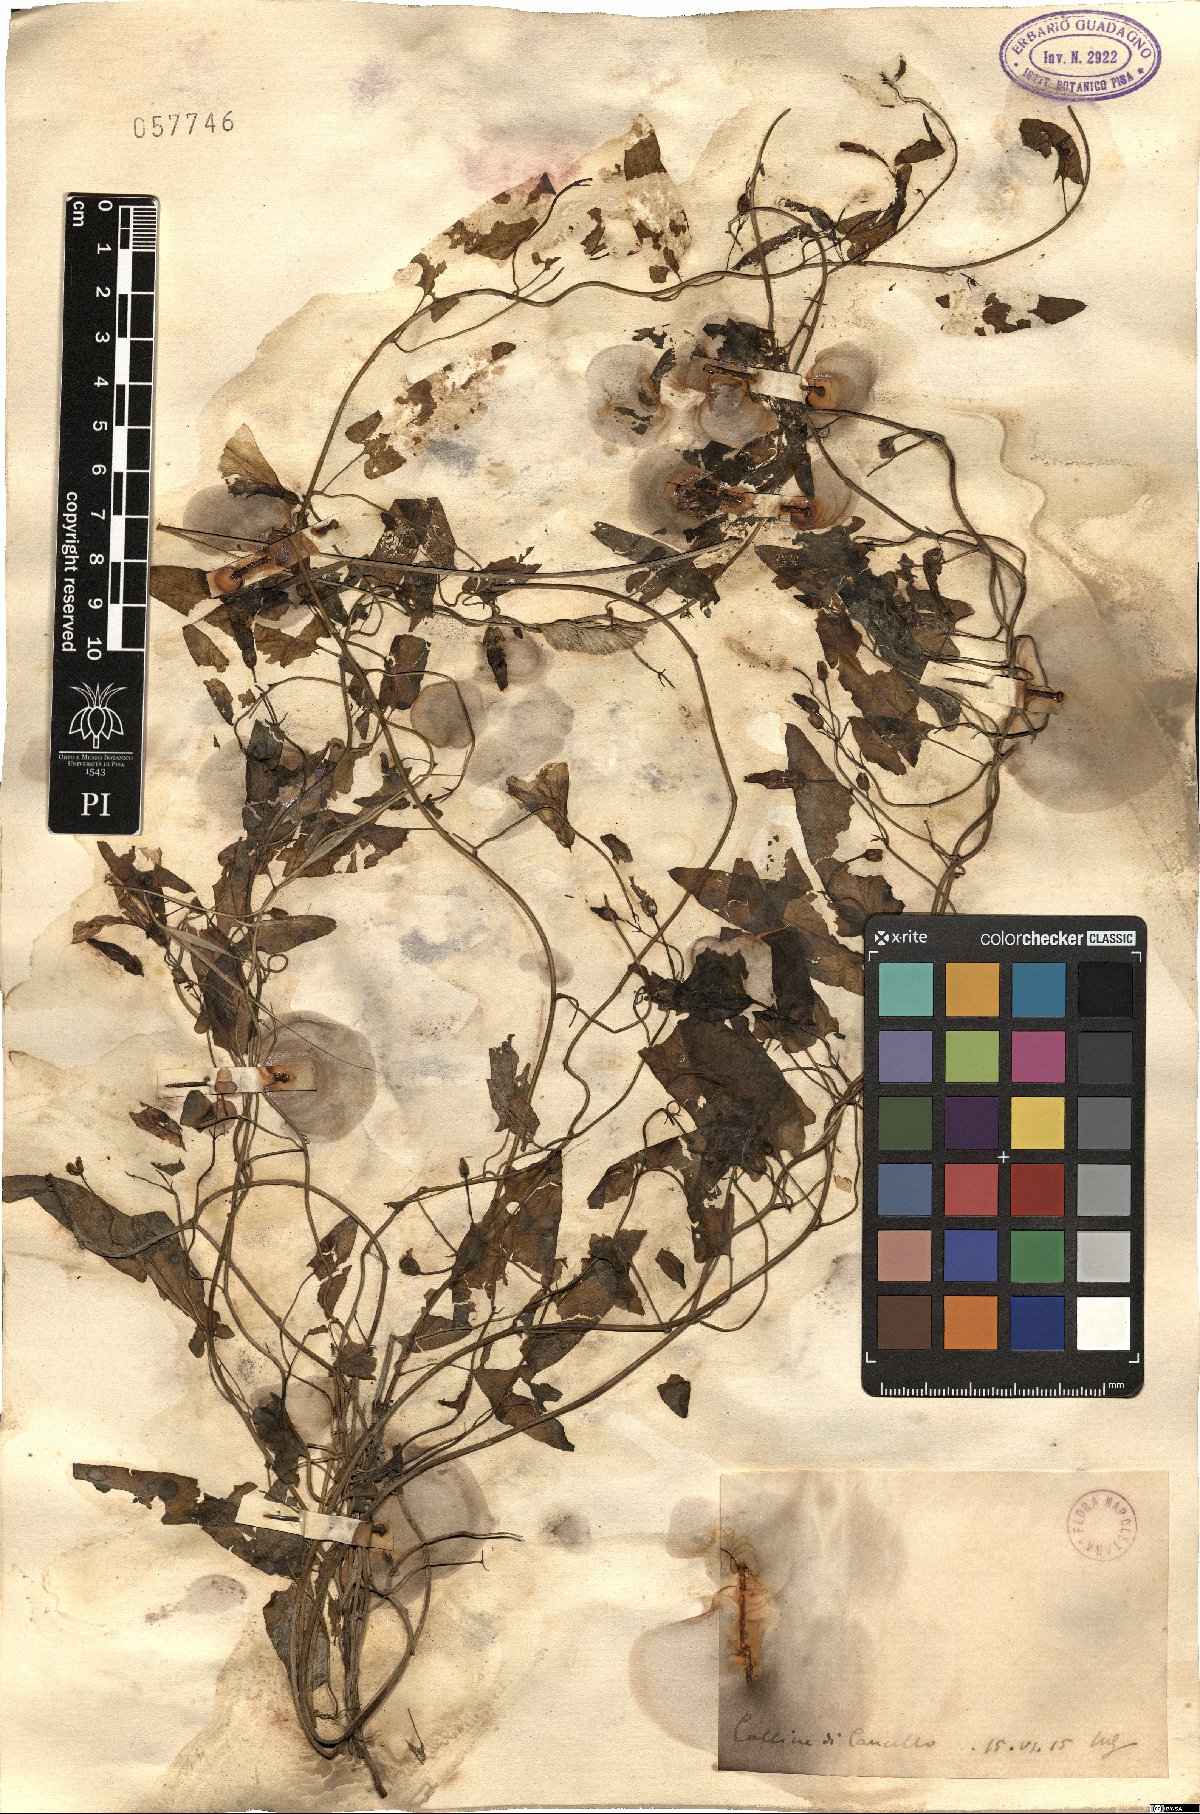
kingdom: Plantae
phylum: Tracheophyta
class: Magnoliopsida
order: Solanales
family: Convolvulaceae
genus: Convolvulus
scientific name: Convolvulus
